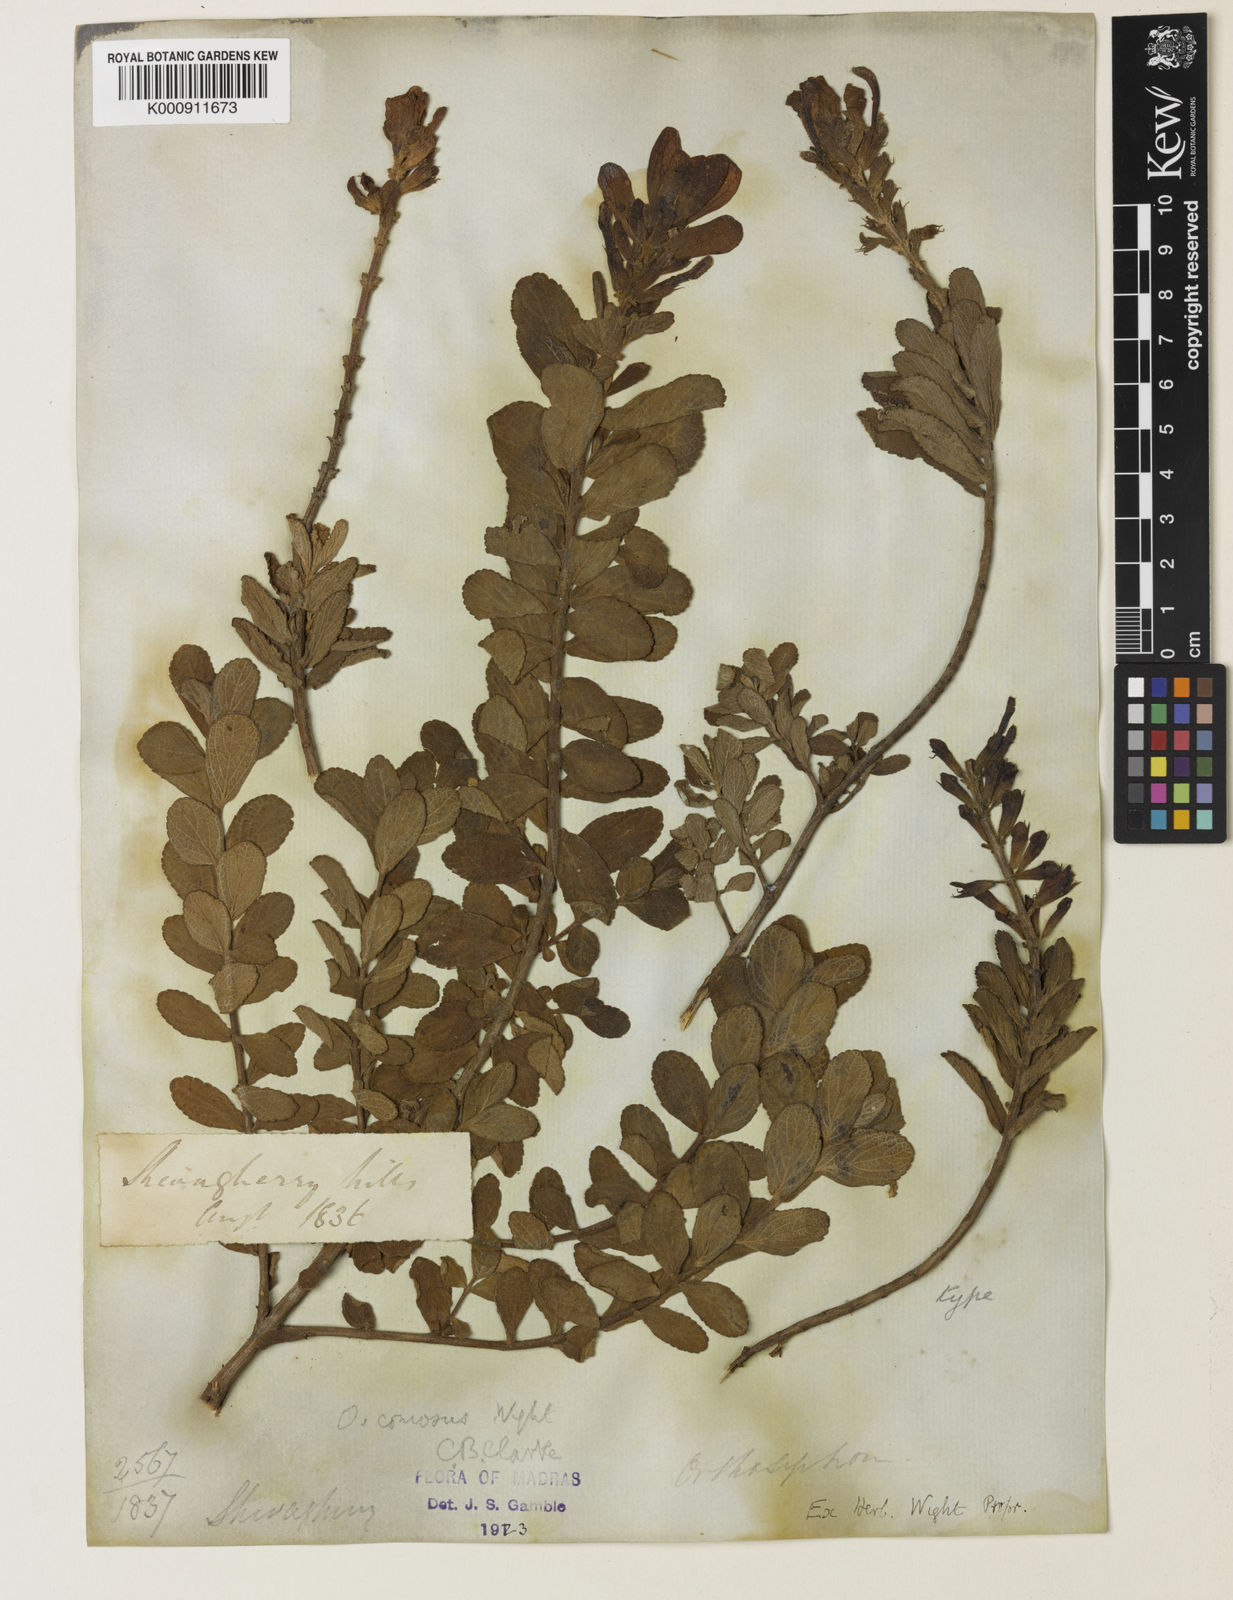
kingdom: Plantae
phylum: Tracheophyta
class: Magnoliopsida
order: Lamiales
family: Lamiaceae
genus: Syncolostemon
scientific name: Syncolostemon comosus
